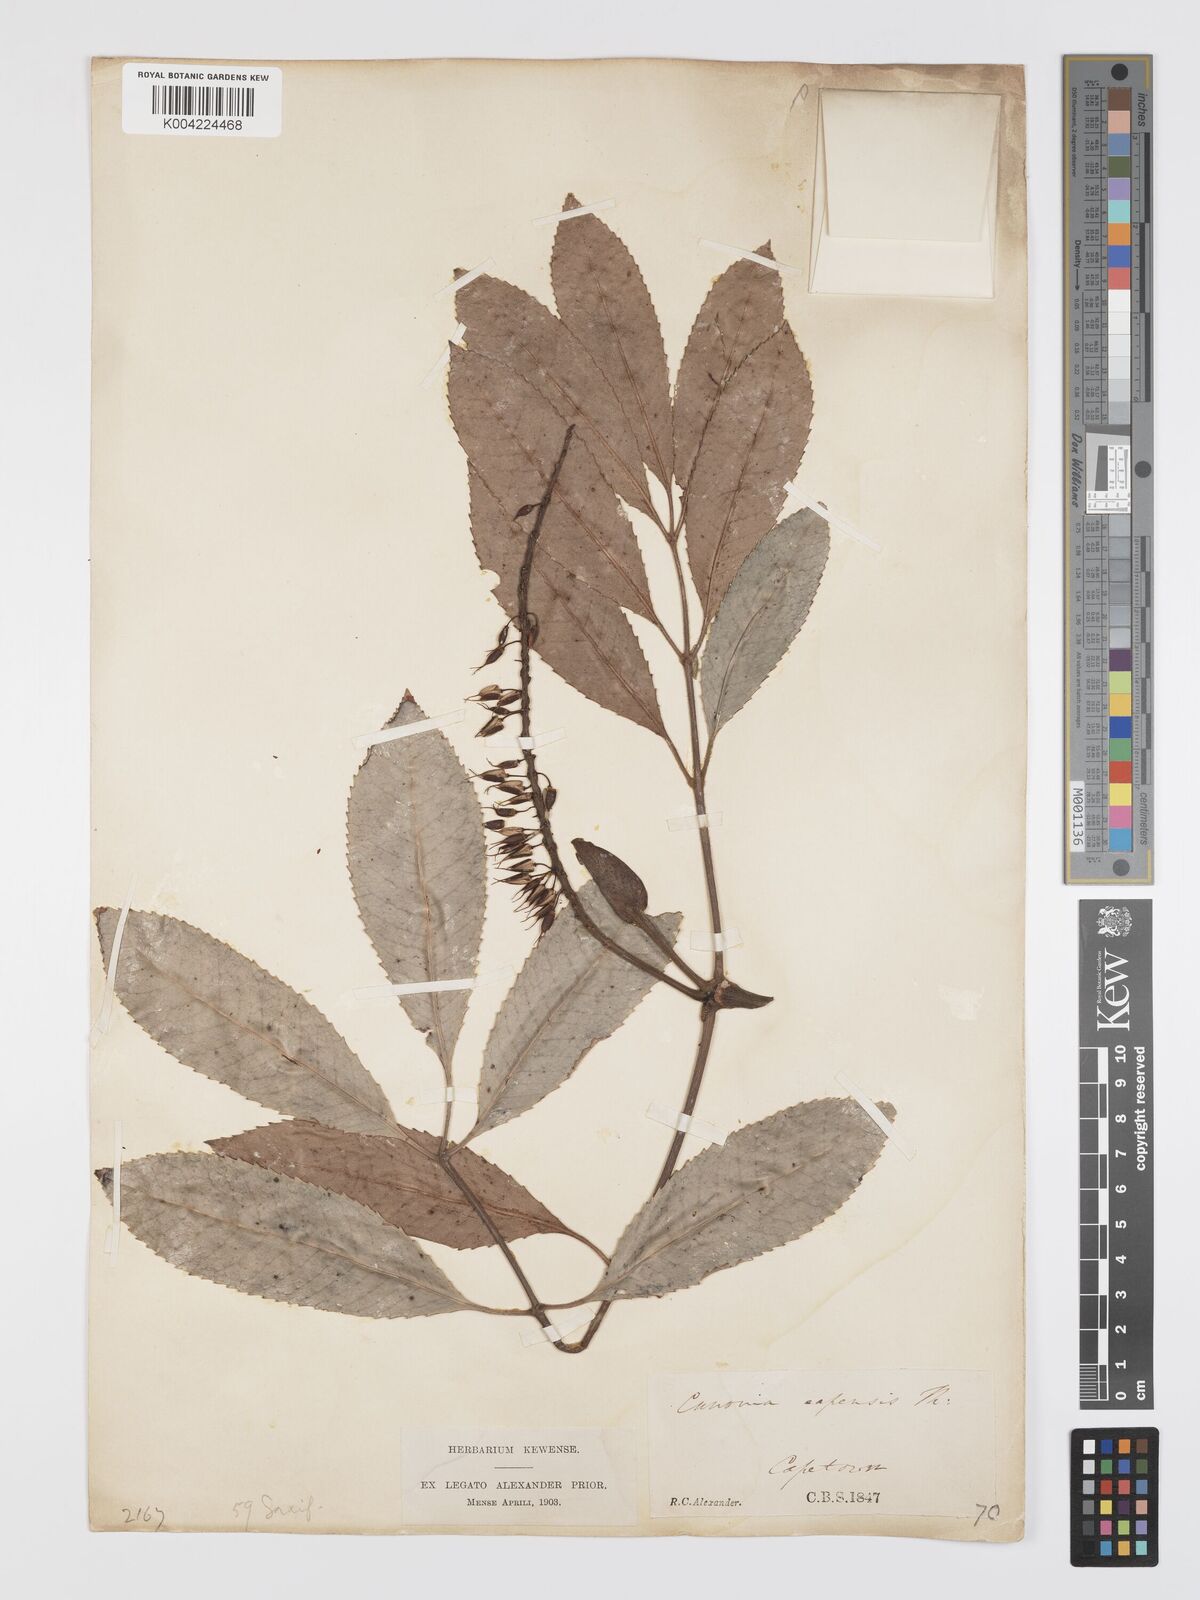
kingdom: Plantae
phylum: Tracheophyta
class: Magnoliopsida
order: Oxalidales
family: Cunoniaceae
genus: Cunonia
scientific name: Cunonia capensis
